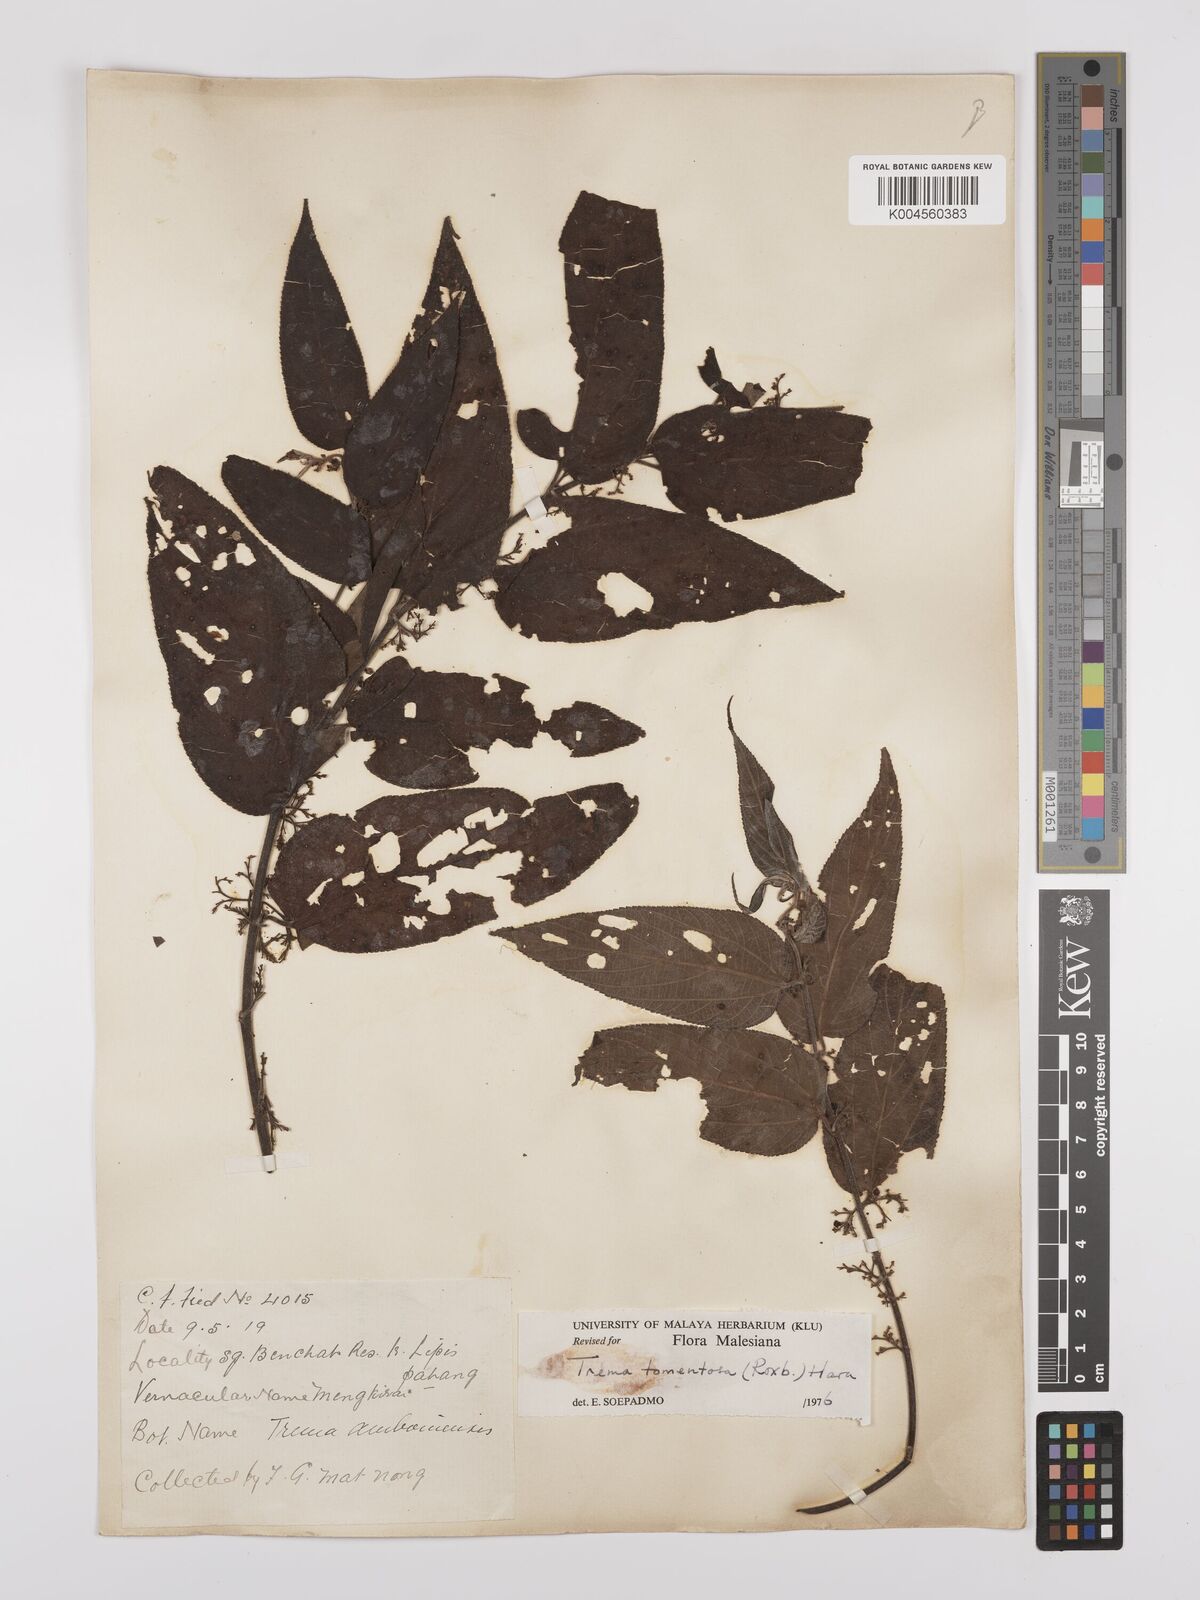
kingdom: Plantae
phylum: Tracheophyta
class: Magnoliopsida
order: Rosales
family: Cannabaceae
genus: Trema
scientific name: Trema tomentosum
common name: Peach-leaf-poisonbush
